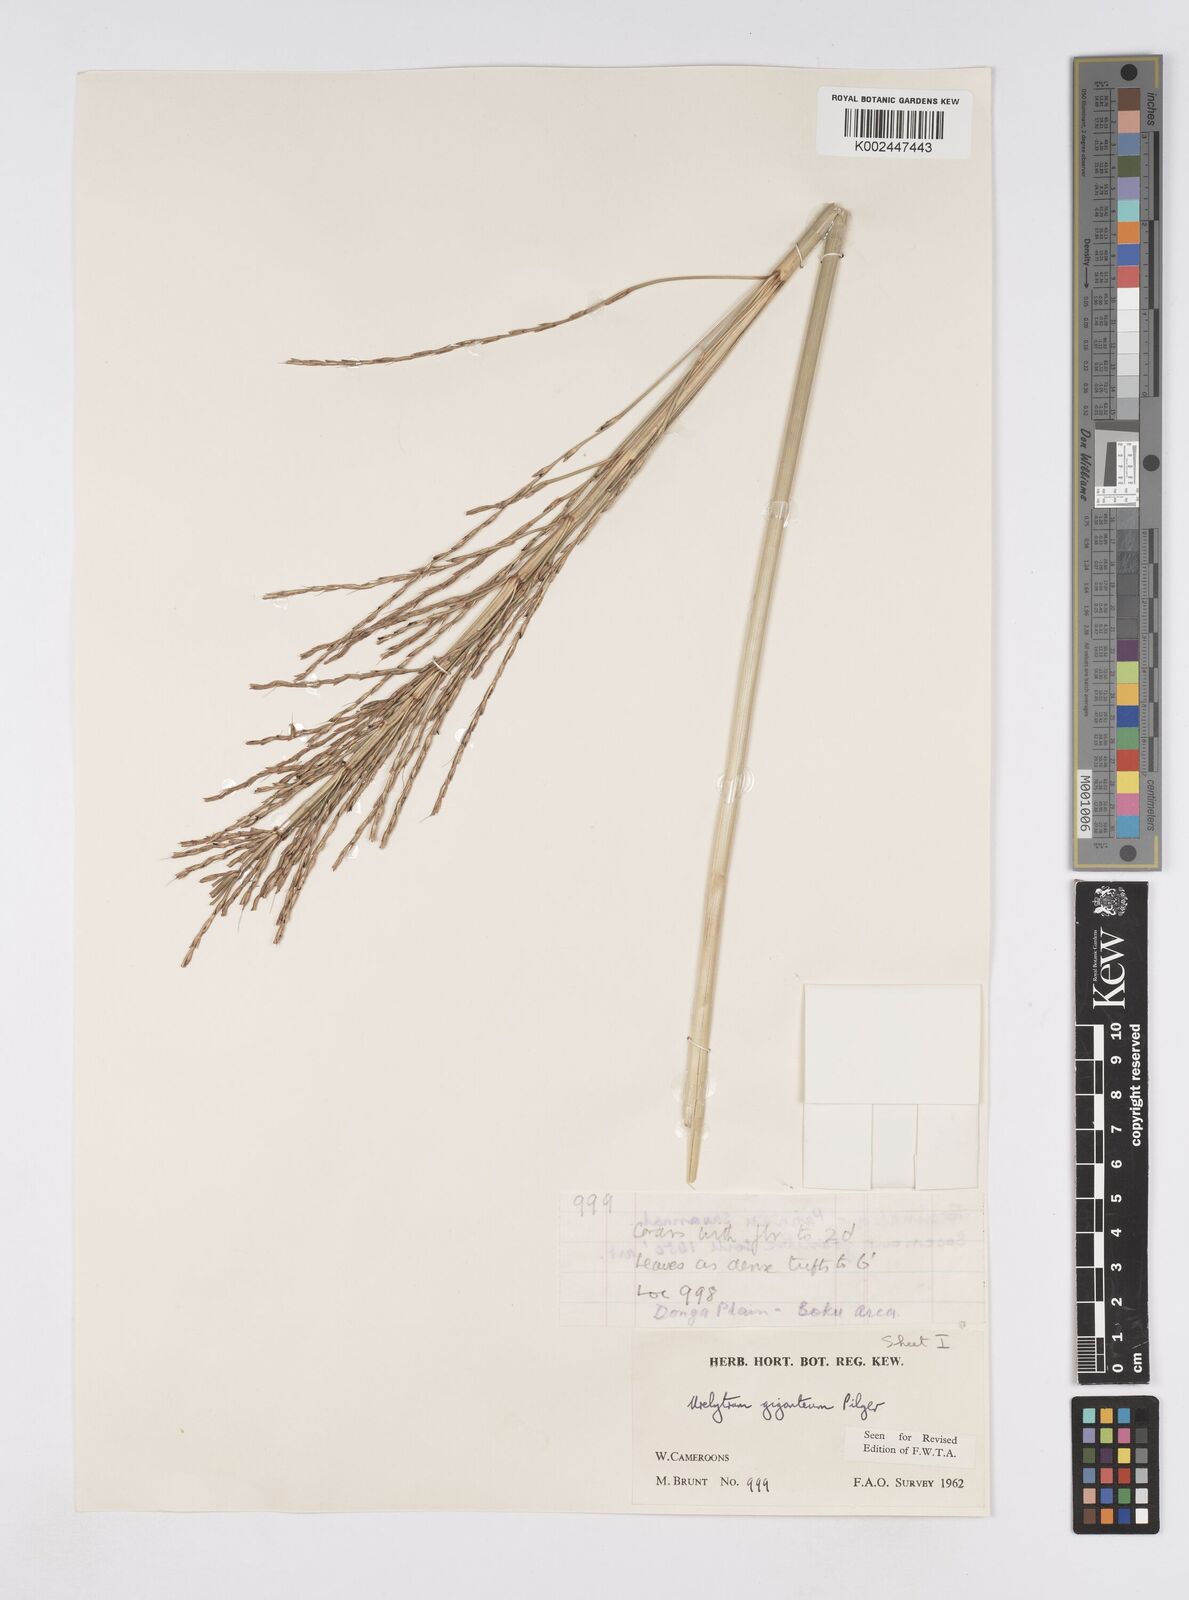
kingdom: Plantae
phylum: Tracheophyta
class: Liliopsida
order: Poales
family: Poaceae
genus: Urelytrum
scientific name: Urelytrum giganteum
